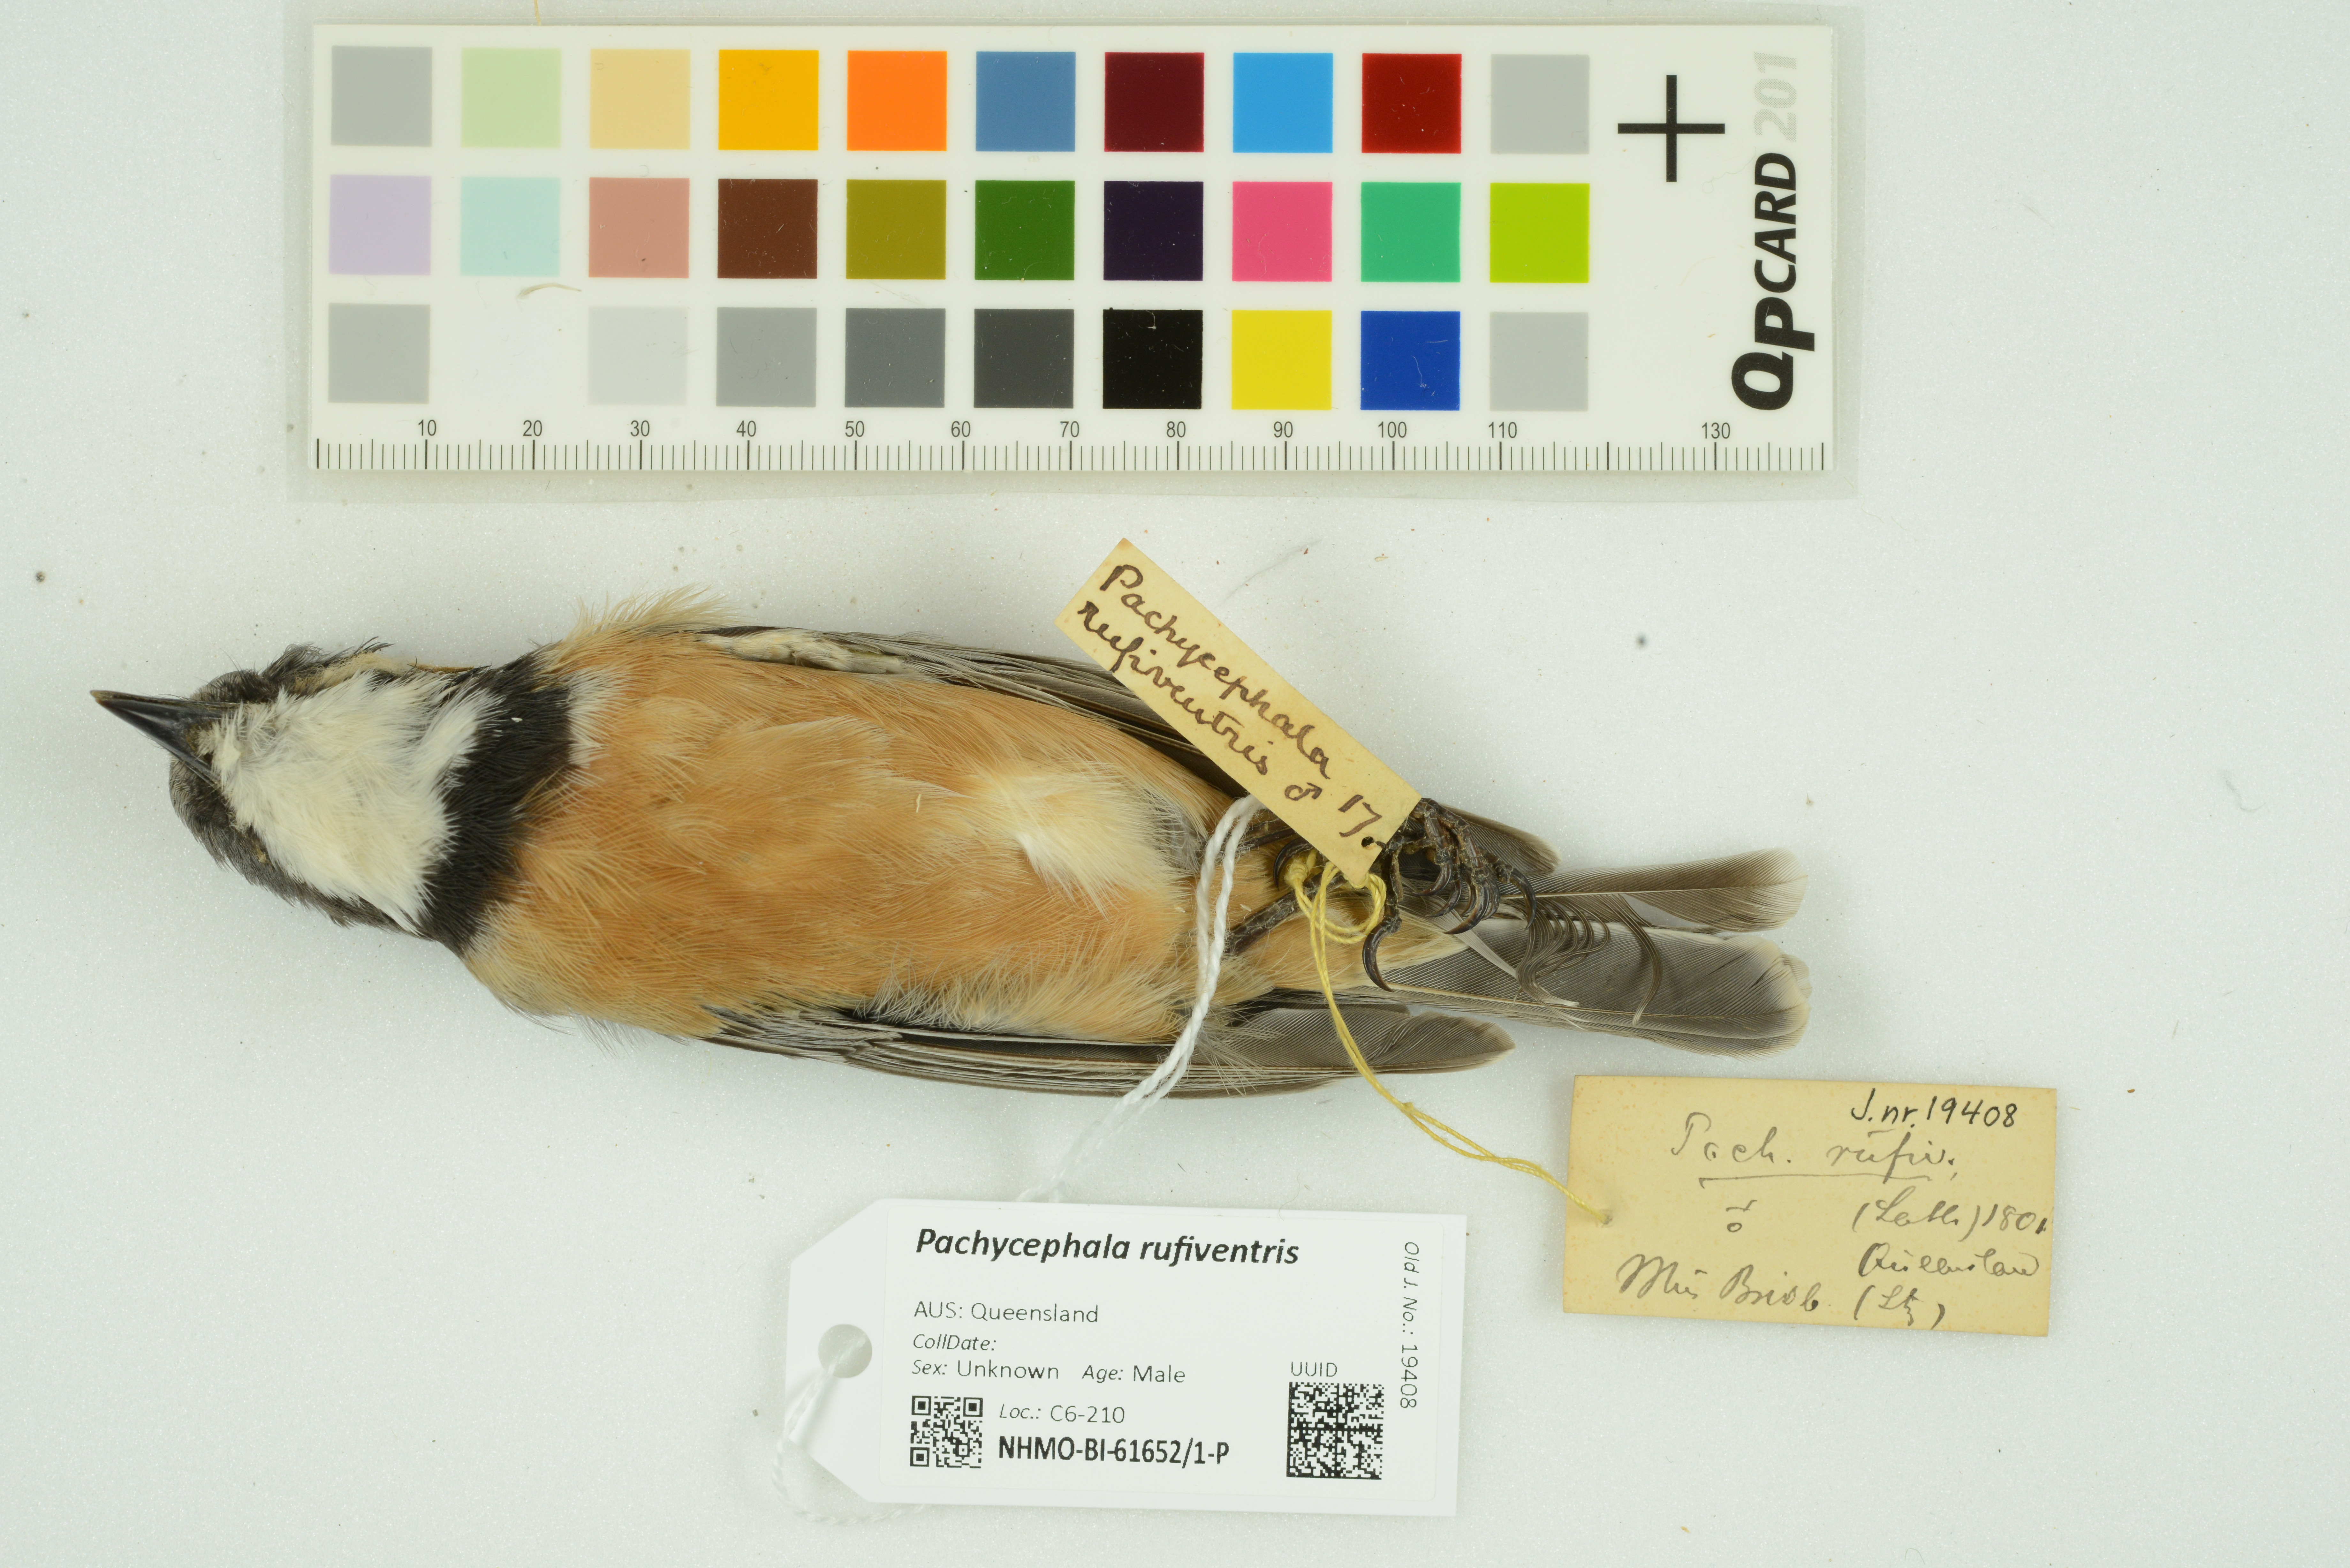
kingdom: Animalia
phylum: Chordata
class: Aves
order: Passeriformes
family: Pachycephalidae
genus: Pachycephala
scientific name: Pachycephala rufiventris
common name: Rufous whistler
